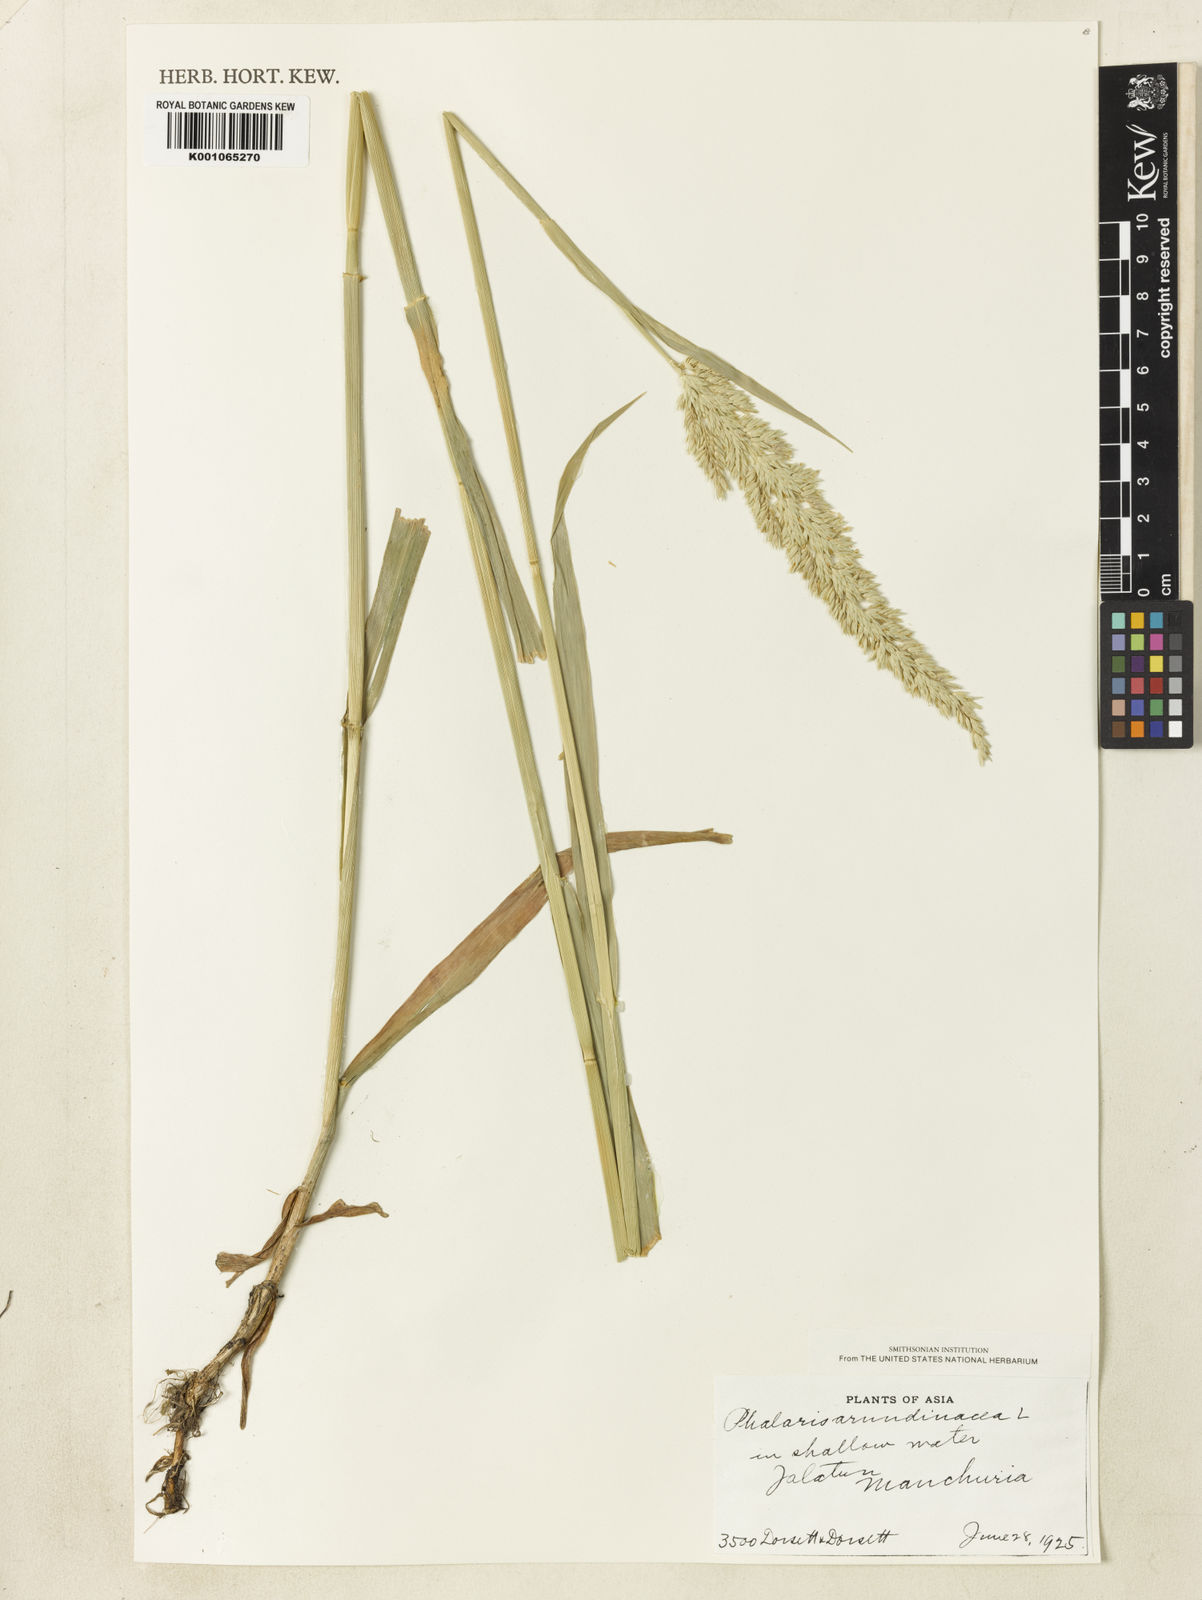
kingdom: Plantae
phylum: Tracheophyta
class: Liliopsida
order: Poales
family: Poaceae
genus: Phalaris
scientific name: Phalaris arundinacea
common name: Reed canary-grass
